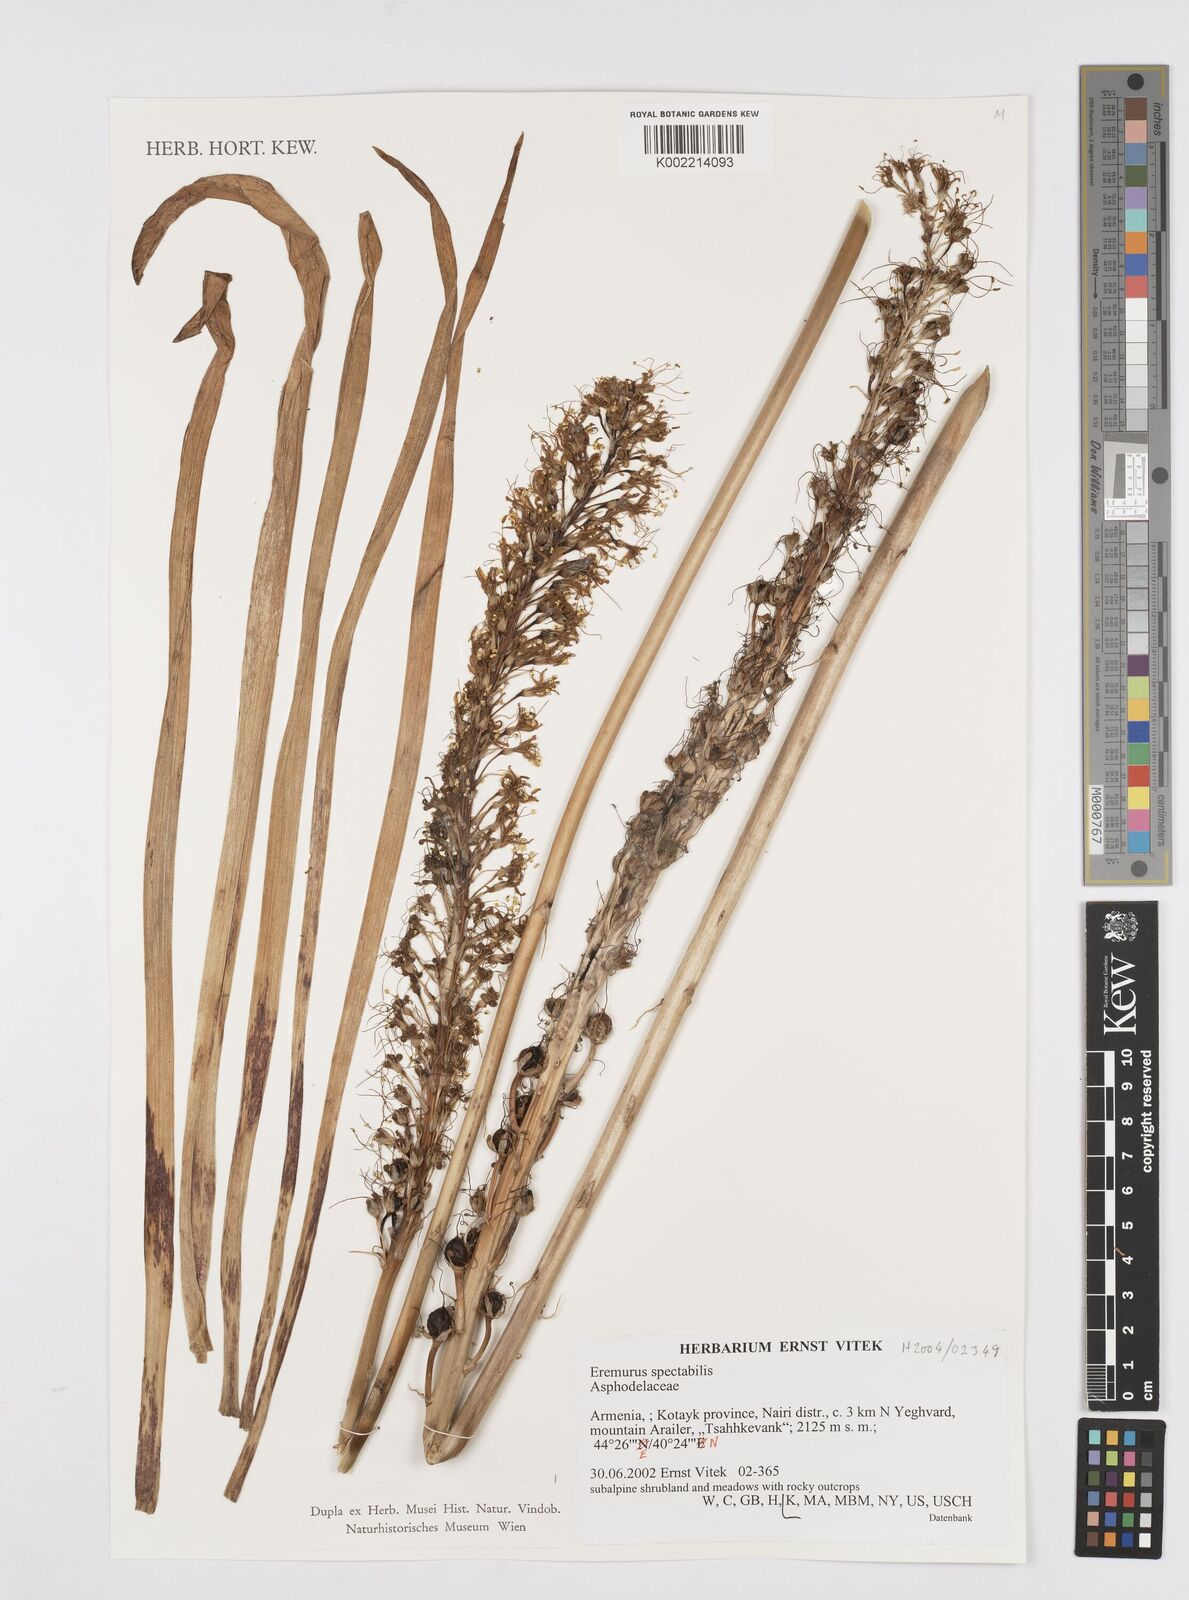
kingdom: Plantae
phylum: Tracheophyta
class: Liliopsida
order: Asparagales
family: Asphodelaceae
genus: Eremurus
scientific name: Eremurus spectabilis
